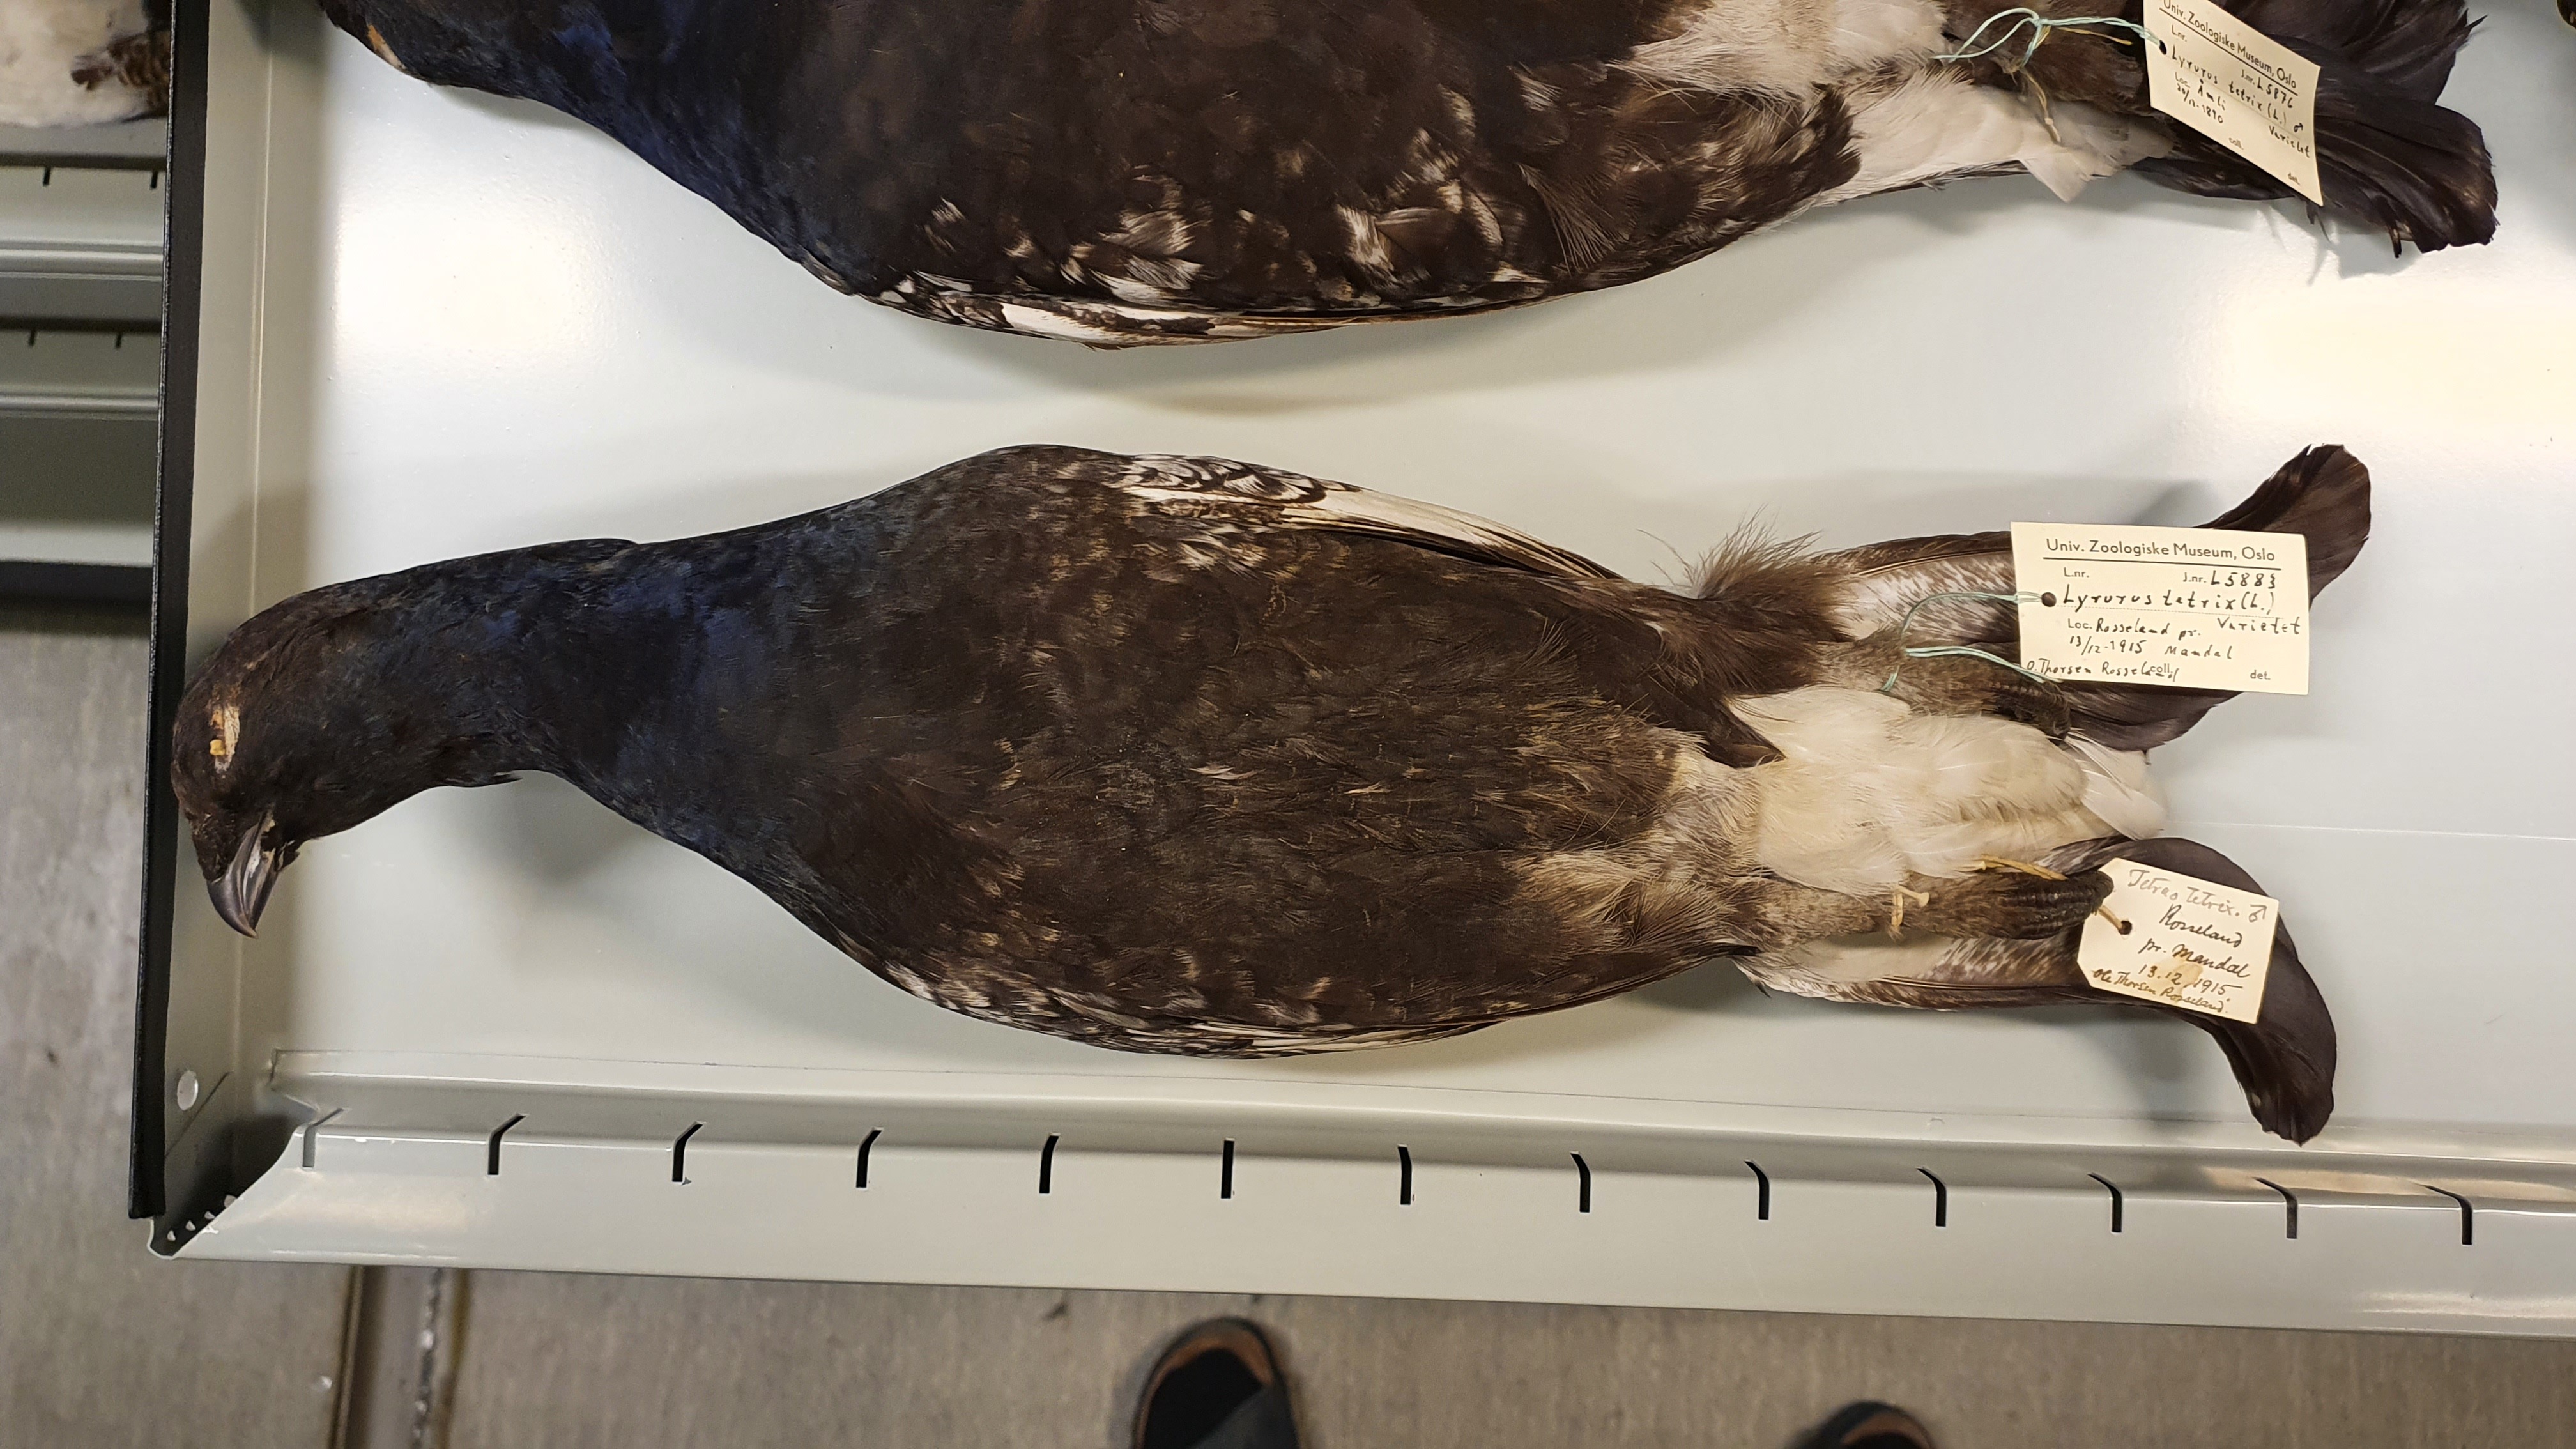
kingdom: Animalia
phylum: Chordata
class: Aves
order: Galliformes
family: Phasianidae
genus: Lyrurus
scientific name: Lyrurus tetrix
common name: Black grouse
